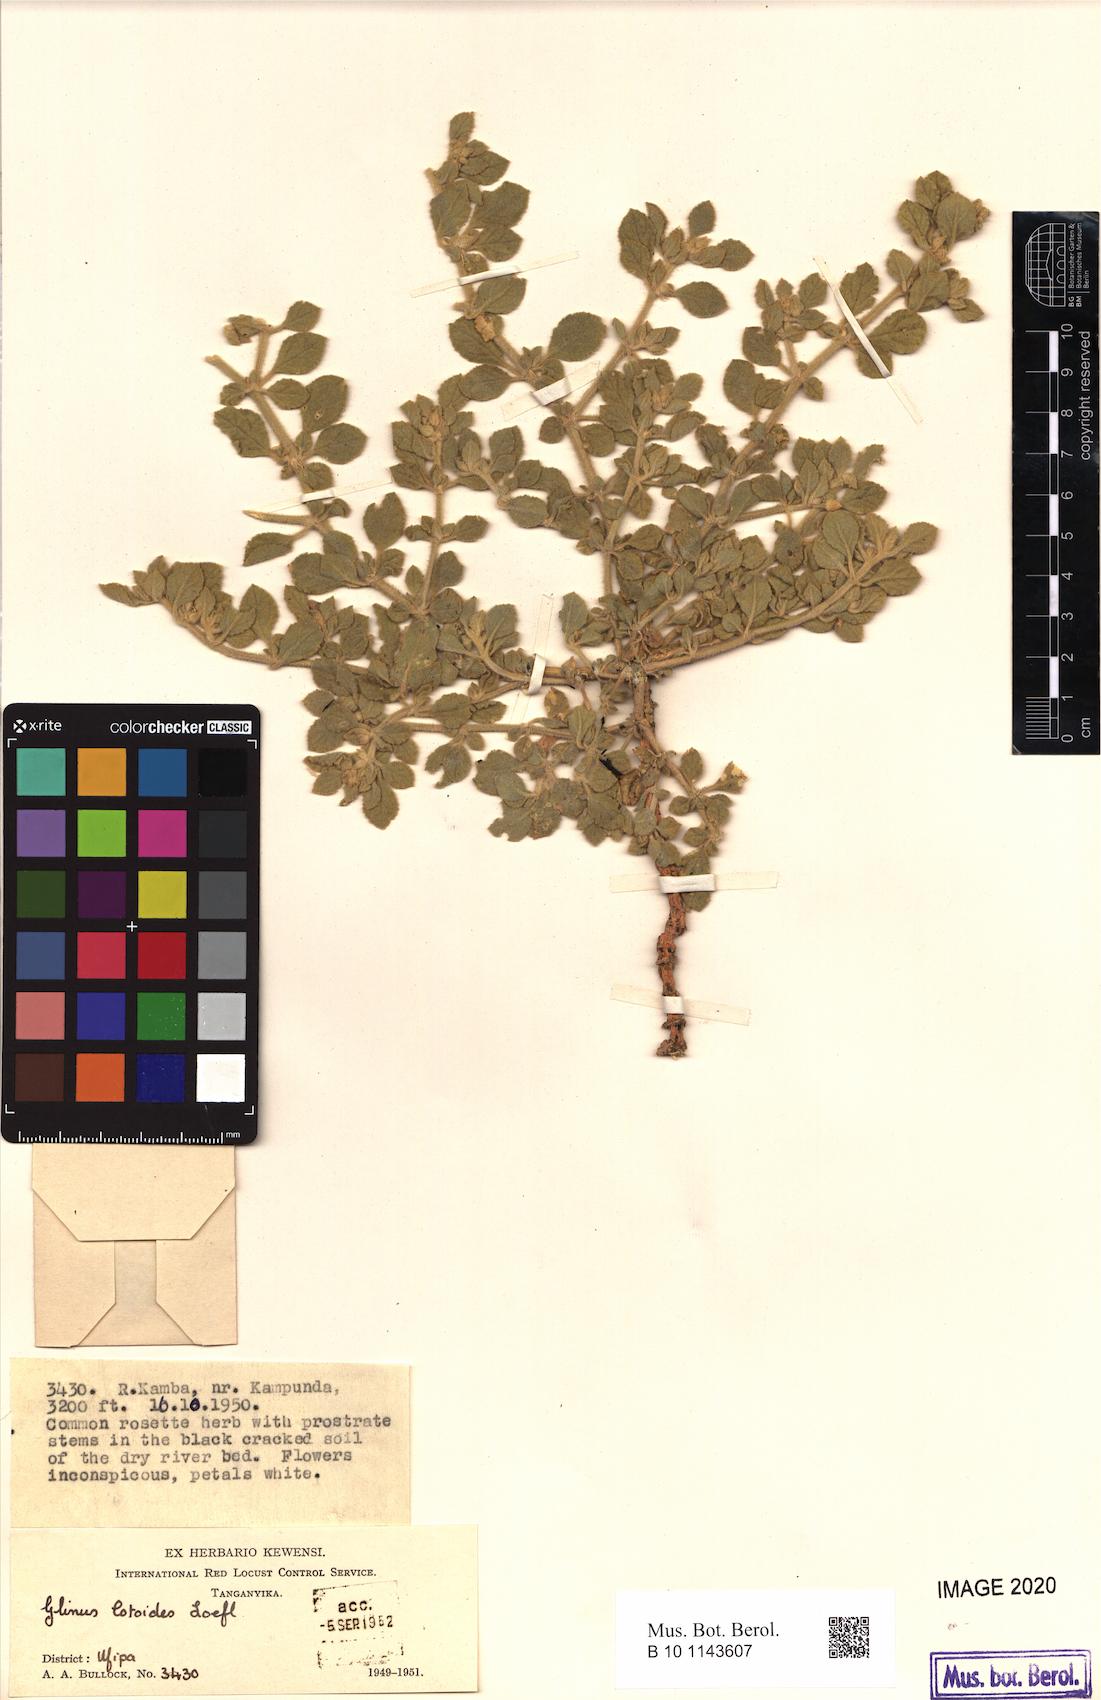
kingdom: Plantae
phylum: Tracheophyta
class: Magnoliopsida
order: Caryophyllales
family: Molluginaceae
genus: Glinus
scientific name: Glinus lotoides
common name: Lotus sweetjuice
